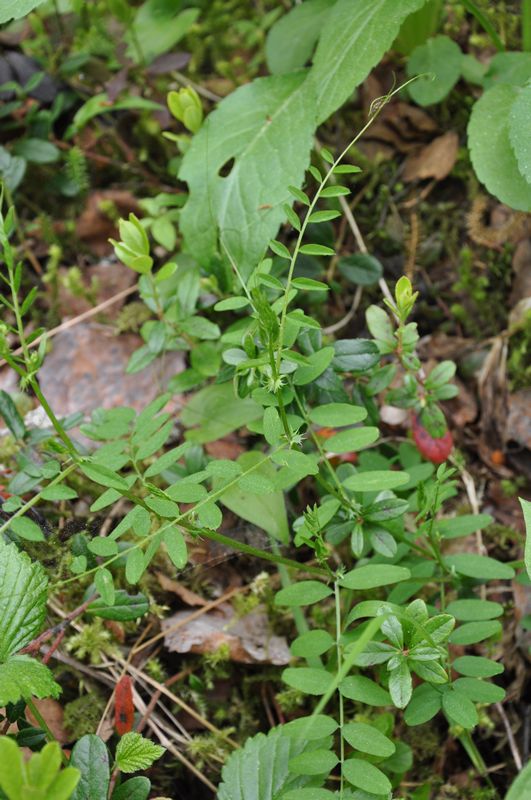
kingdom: Plantae
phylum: Tracheophyta
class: Magnoliopsida
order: Fabales
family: Fabaceae
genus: Vicia
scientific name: Vicia sepium
